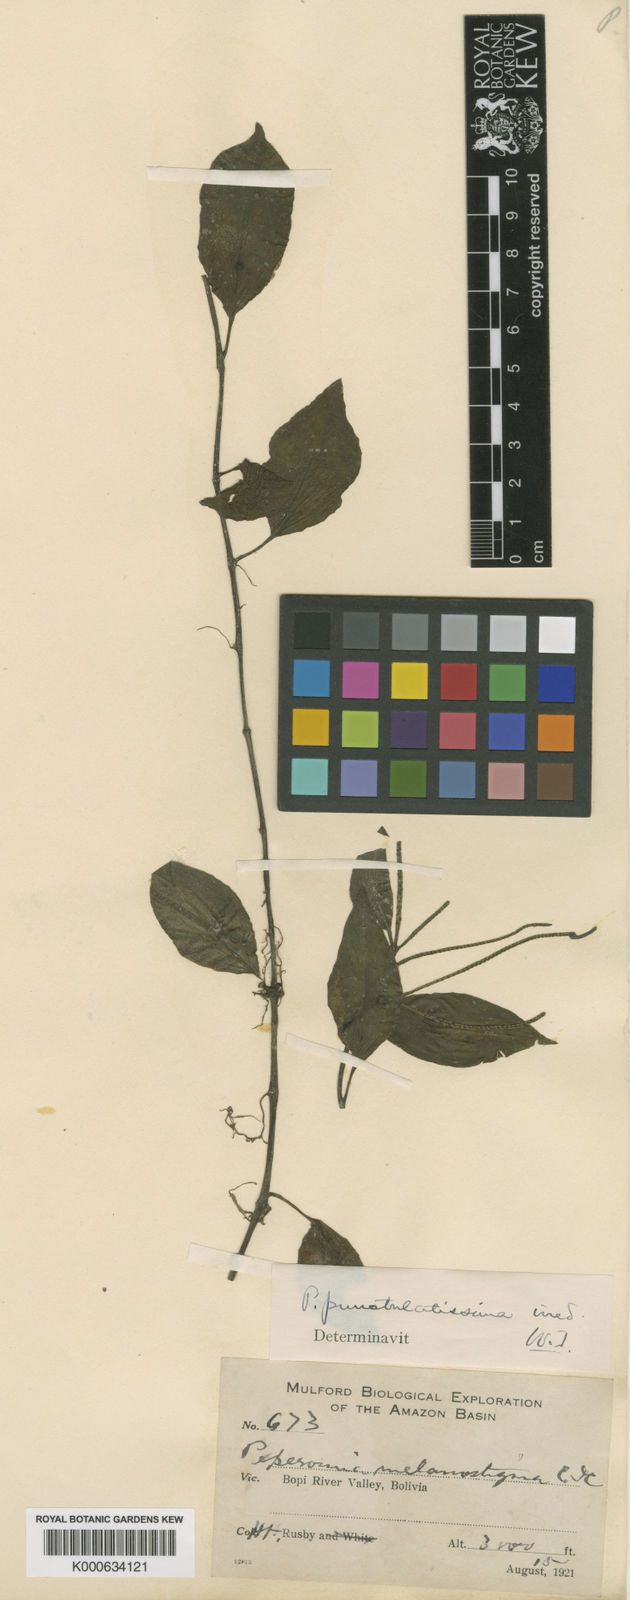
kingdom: Plantae
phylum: Tracheophyta
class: Magnoliopsida
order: Piperales
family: Piperaceae
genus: Peperomia
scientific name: Peperomia punctulatissima
